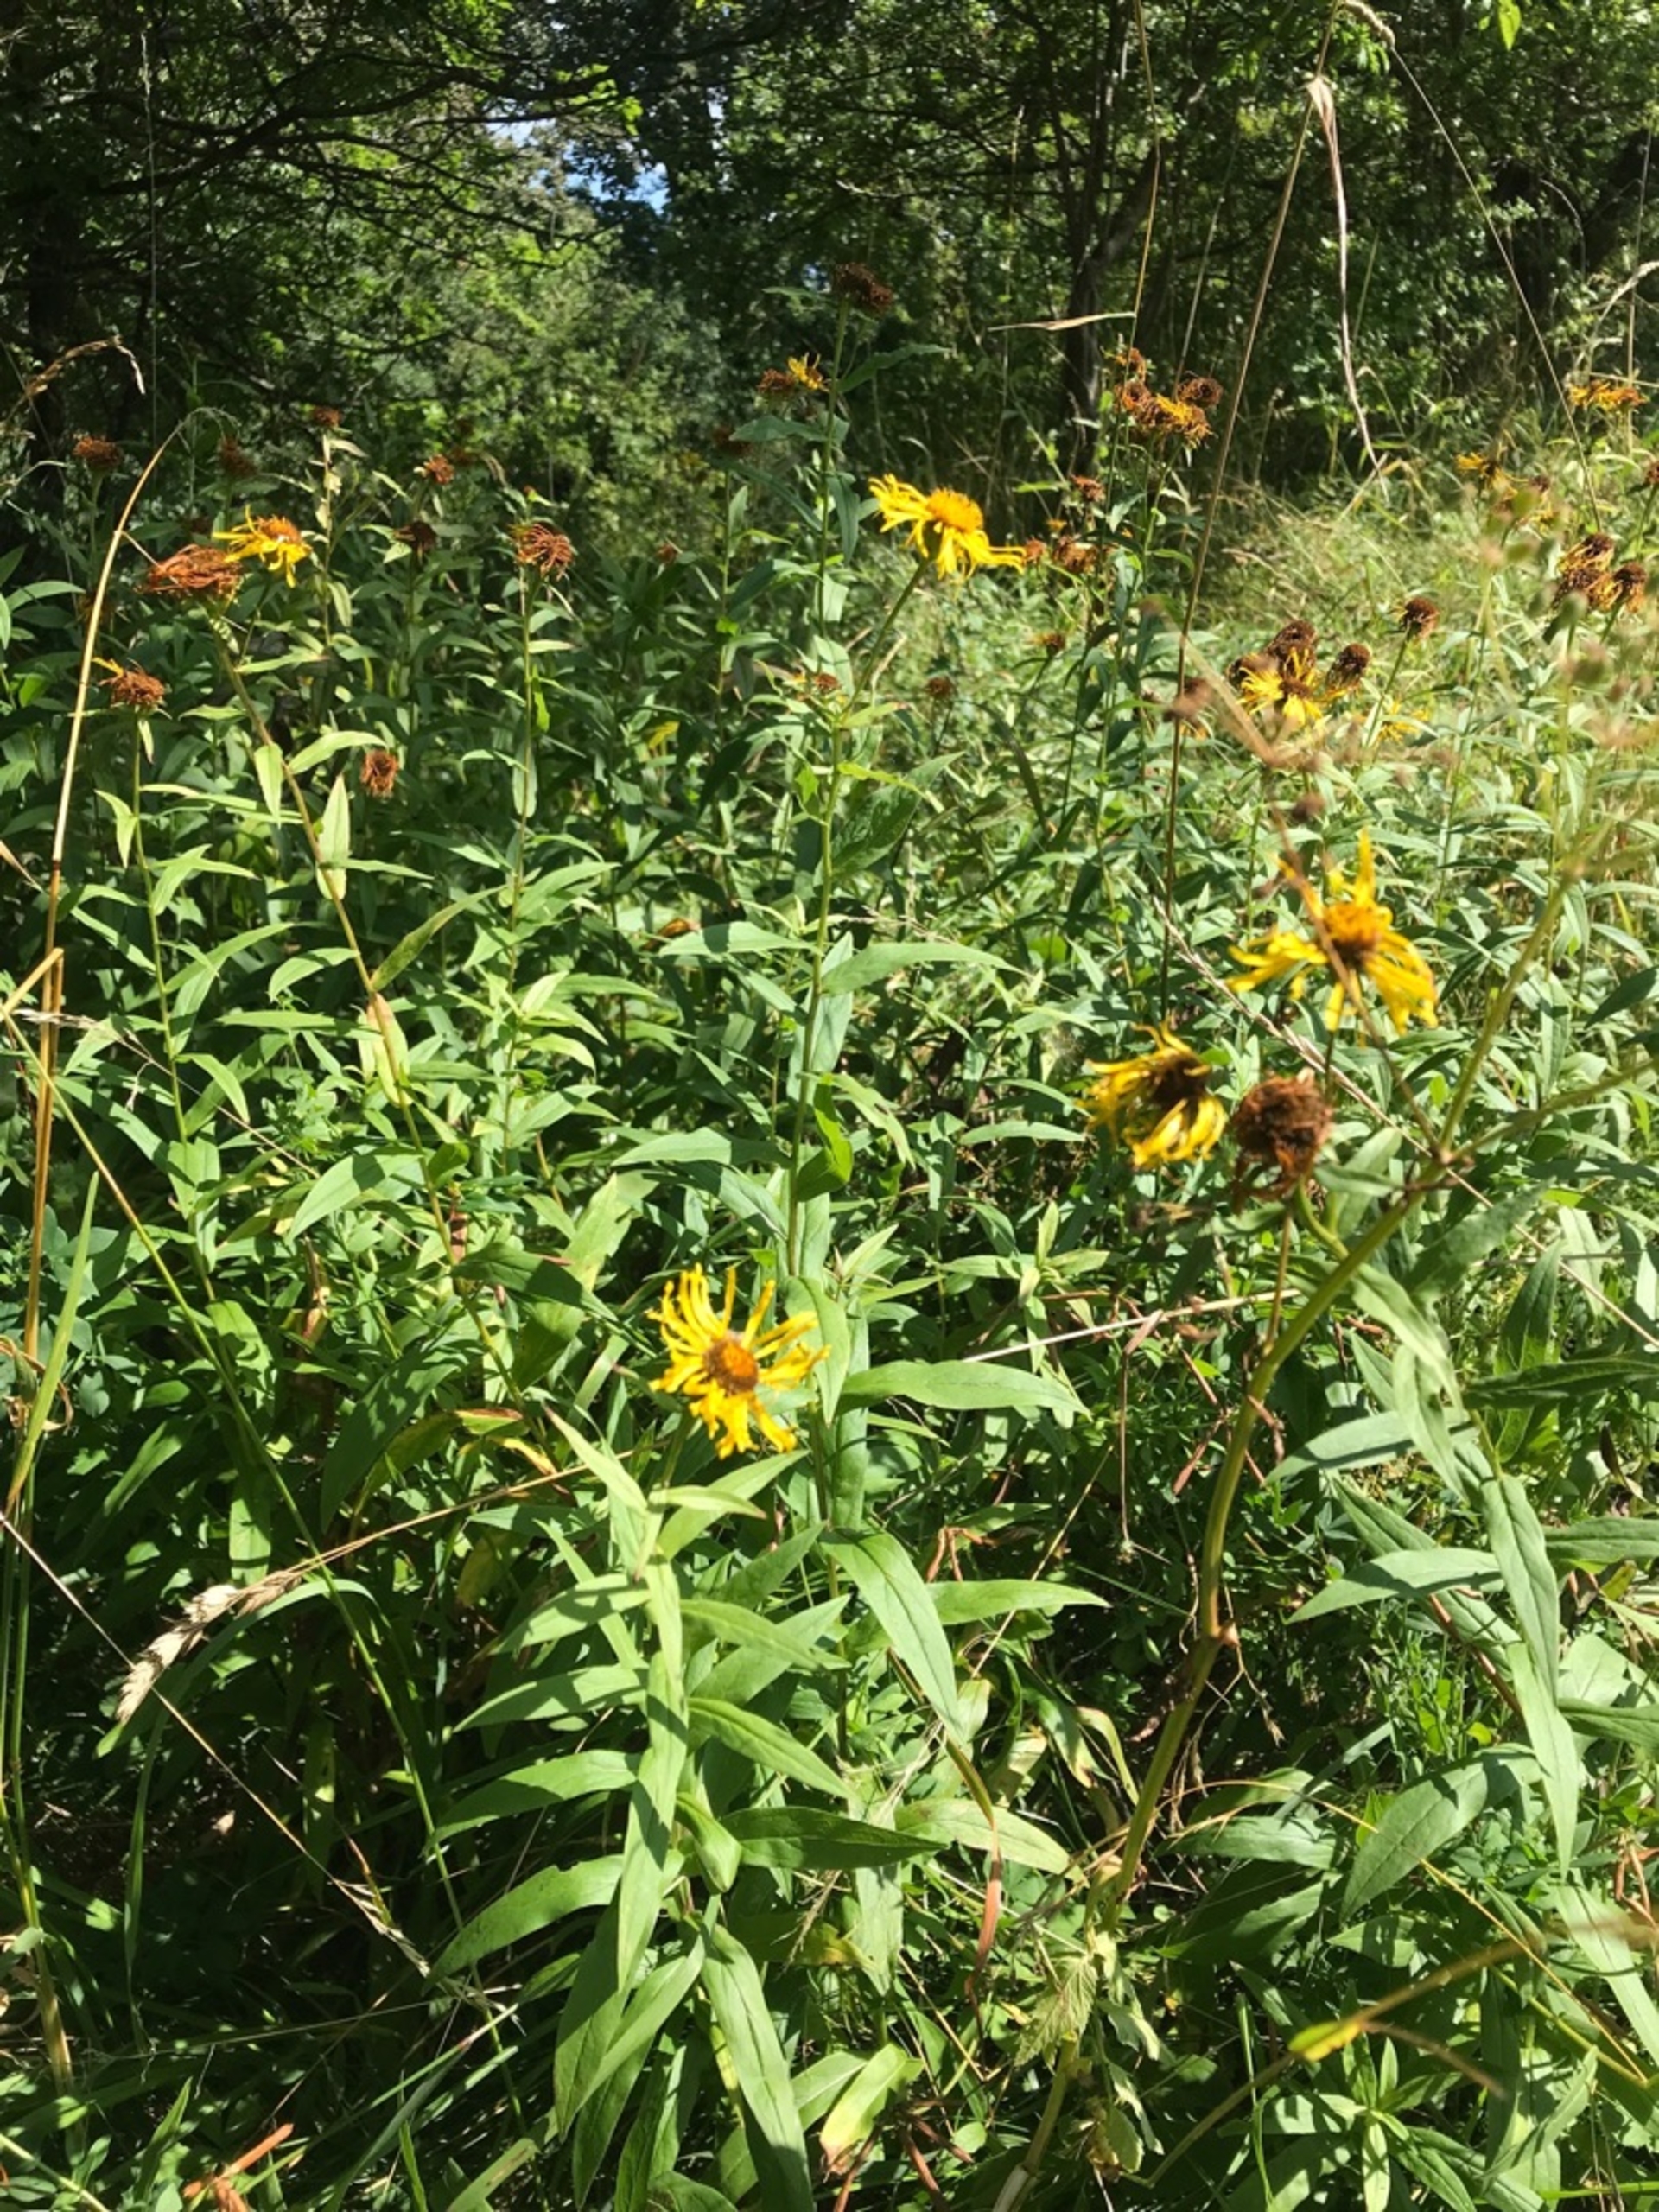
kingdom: Plantae
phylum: Tracheophyta
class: Magnoliopsida
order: Asterales
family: Asteraceae
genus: Pentanema
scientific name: Pentanema salicinum
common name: Pile-alant
